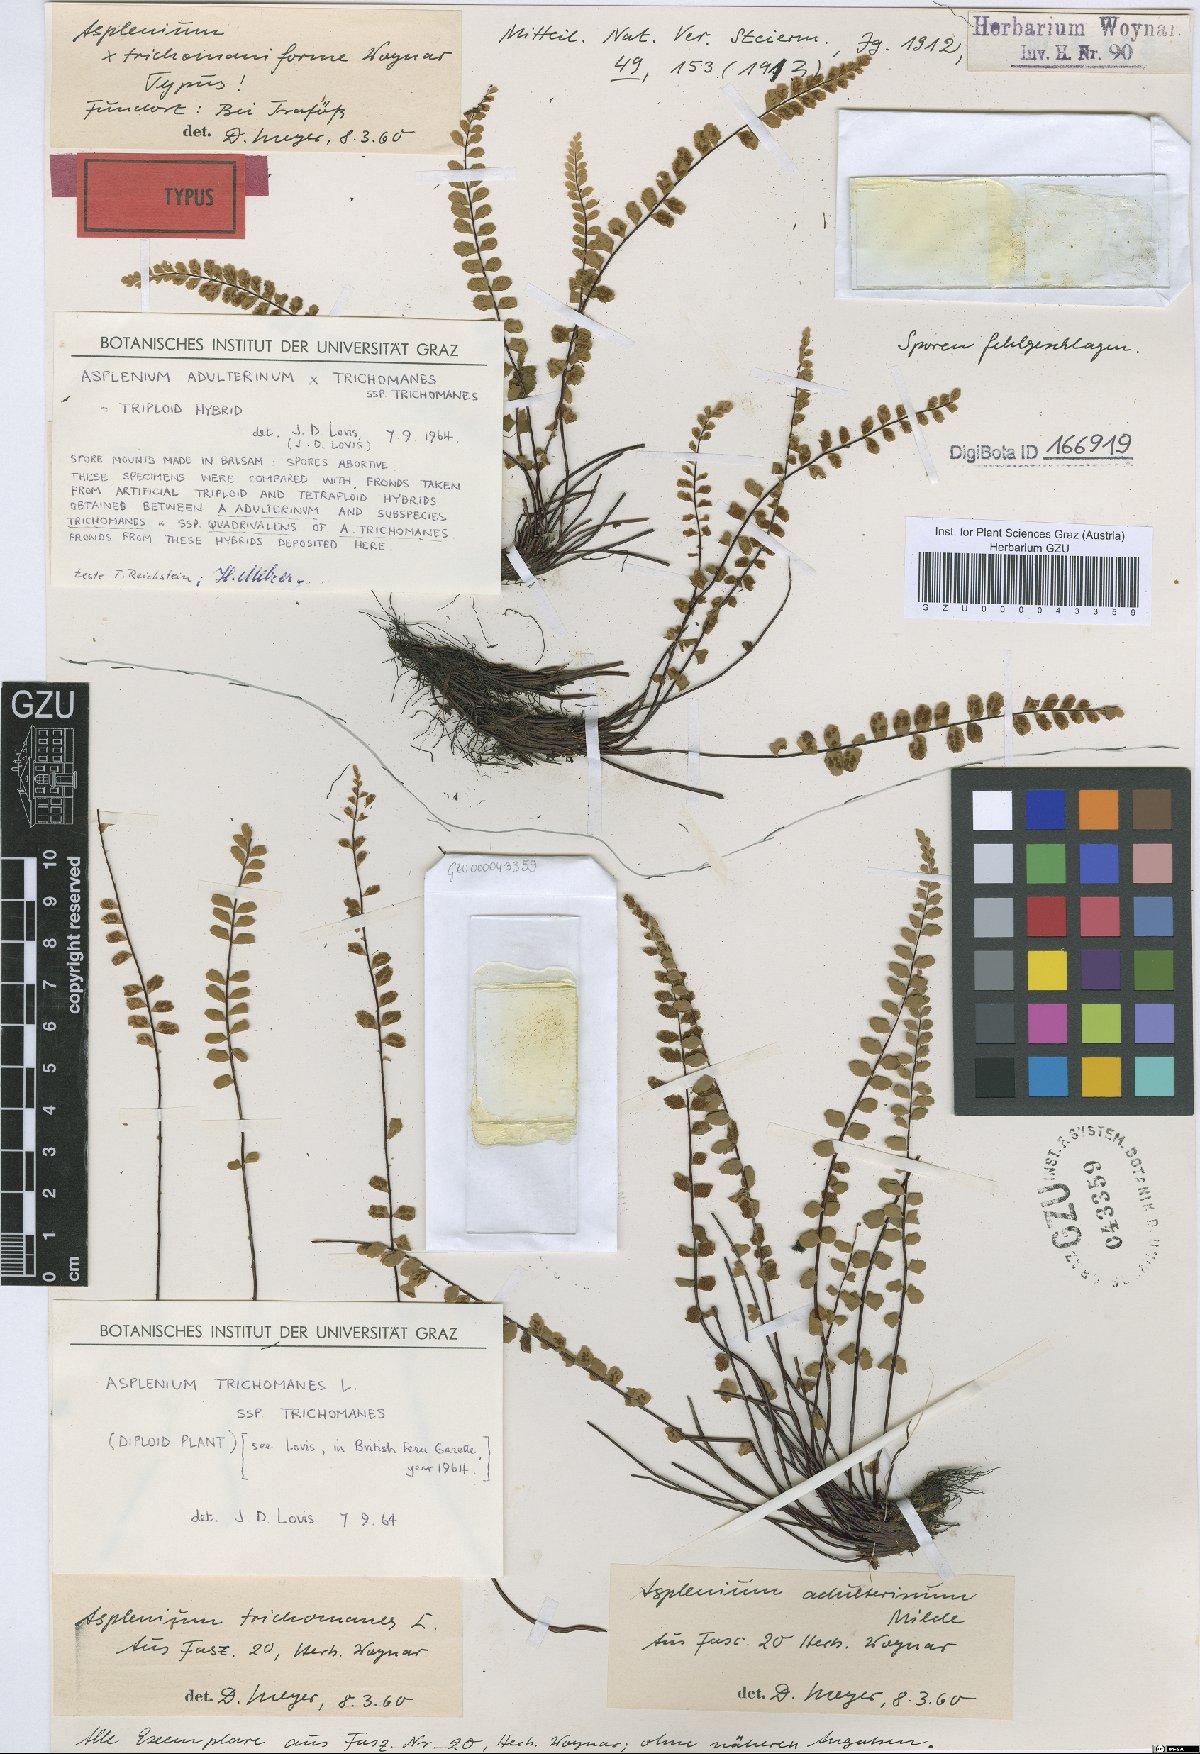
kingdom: Plantae
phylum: Tracheophyta
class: Polypodiopsida
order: Polypodiales
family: Aspleniaceae
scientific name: Aspleniaceae
